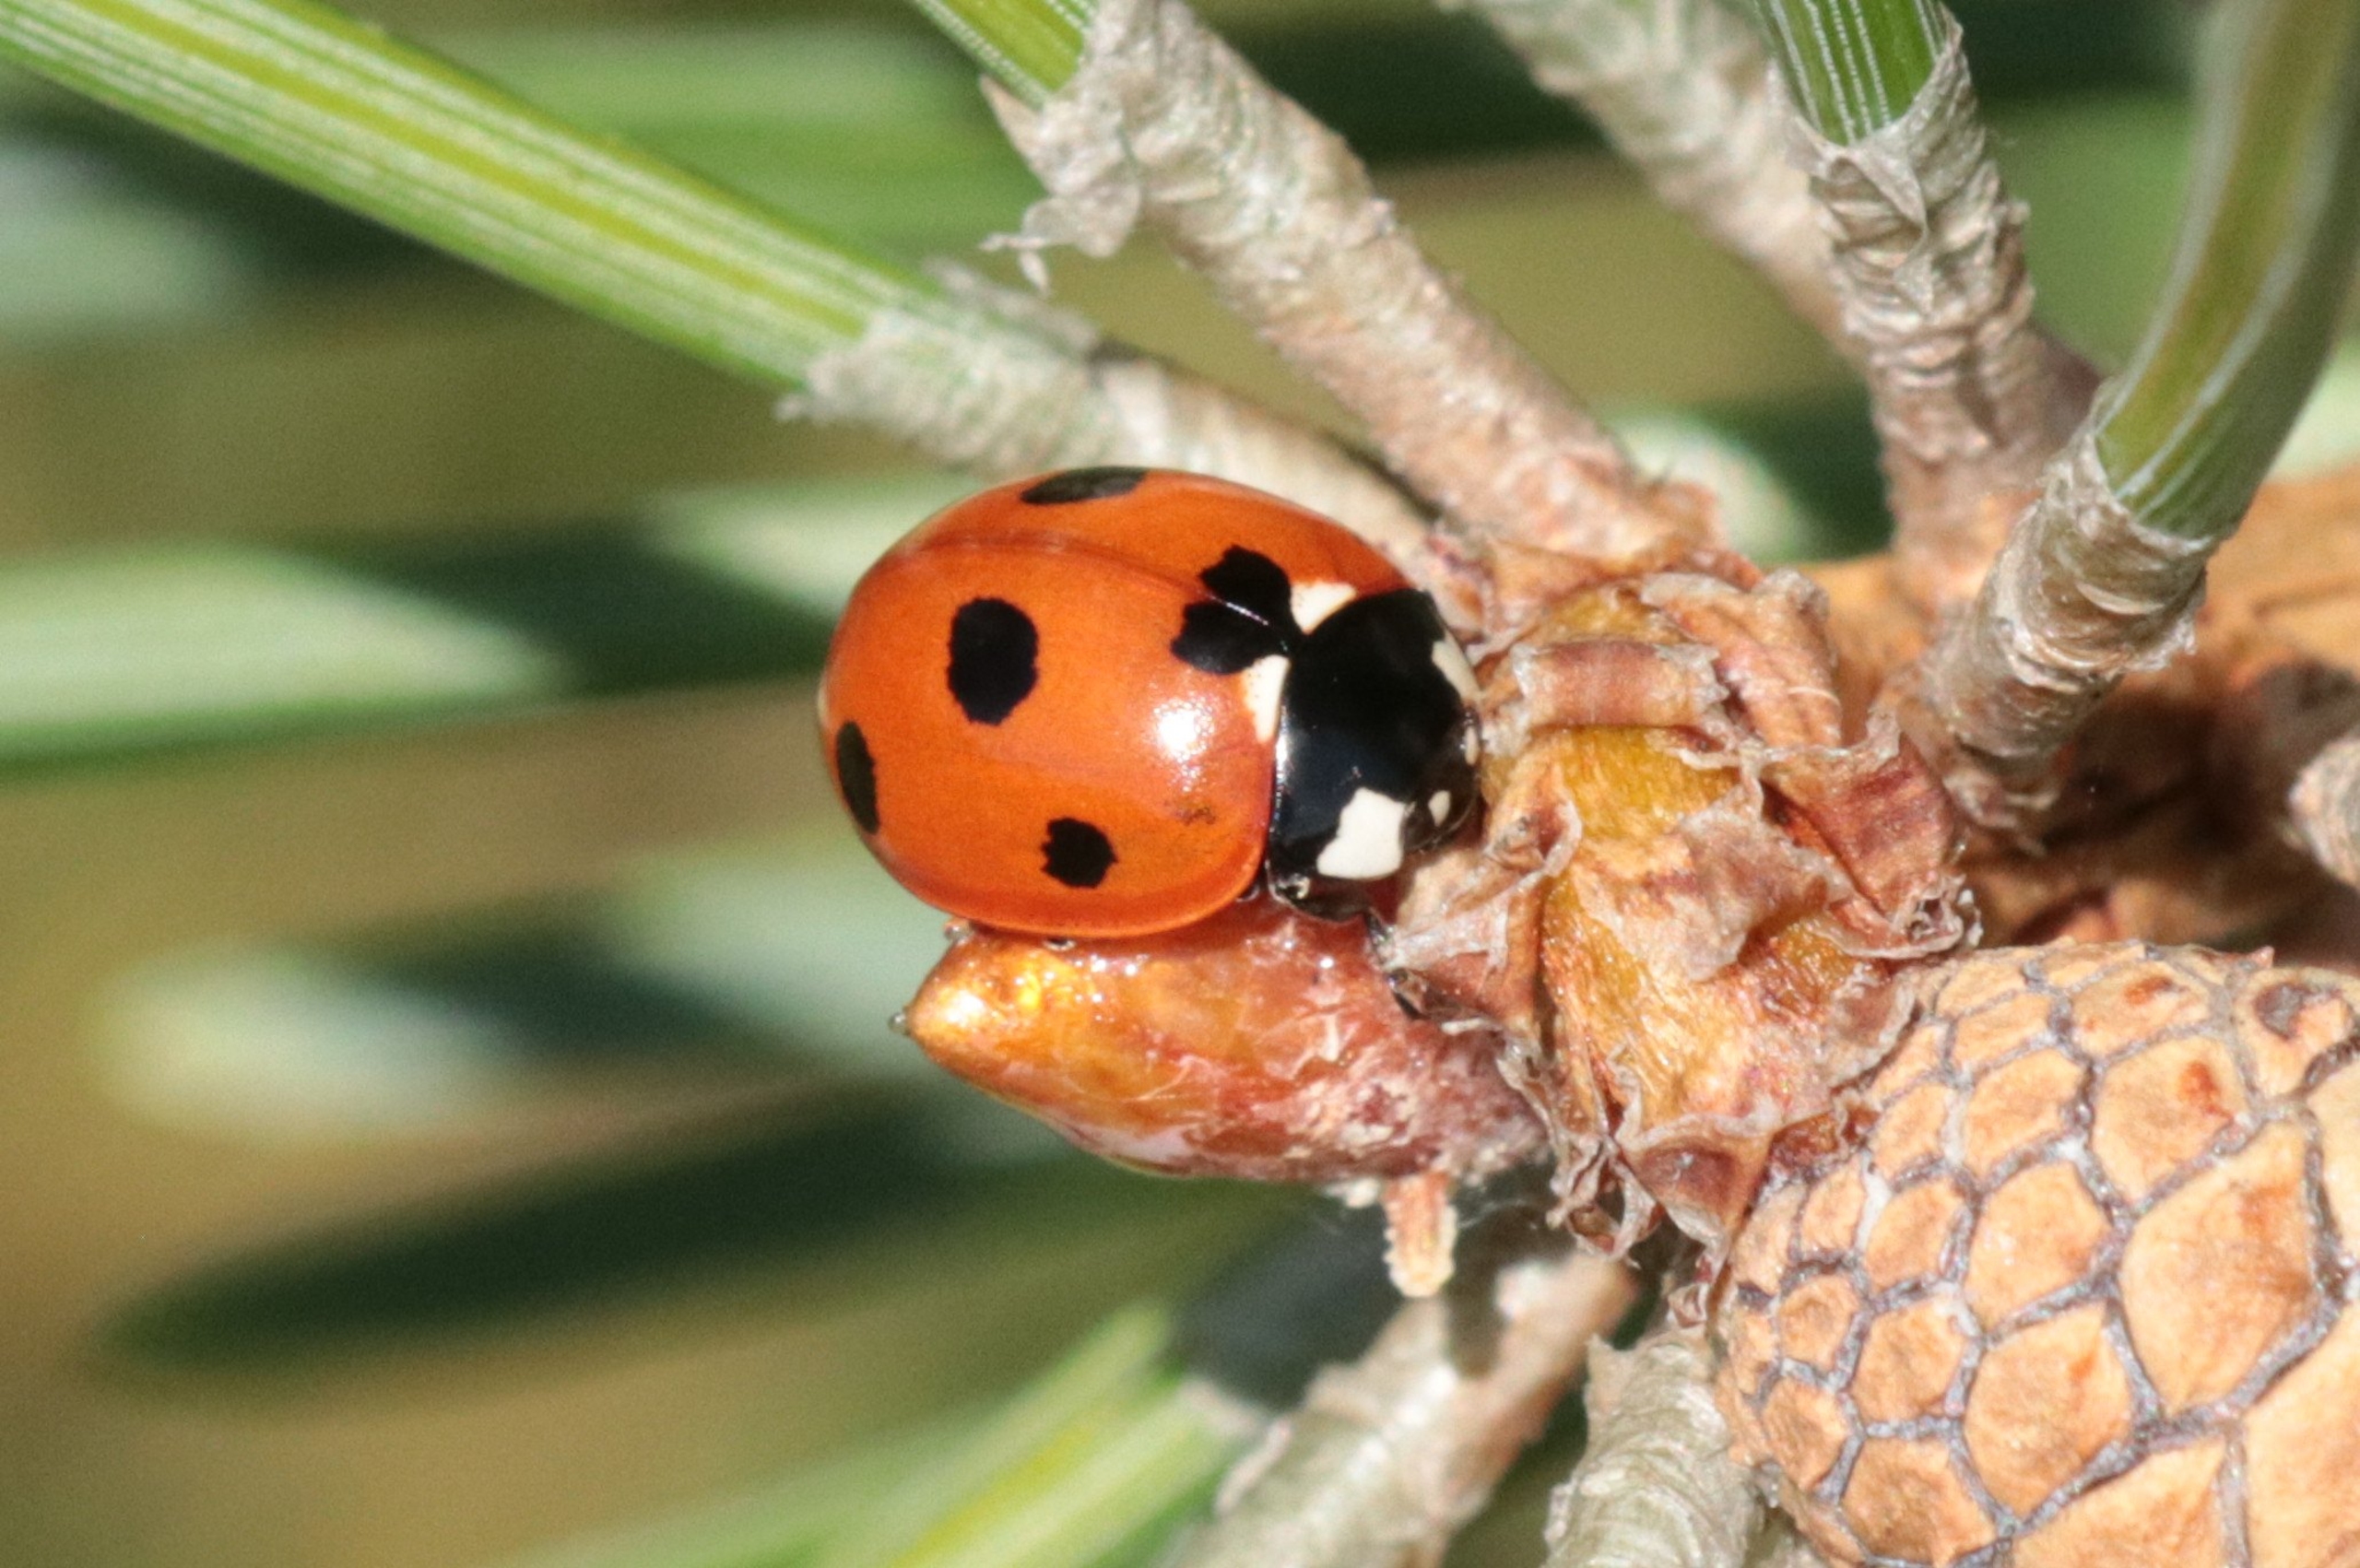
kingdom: Animalia
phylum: Arthropoda
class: Insecta
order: Coleoptera
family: Coccinellidae
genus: Coccinella
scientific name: Coccinella septempunctata
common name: Syvplettet mariehøne
